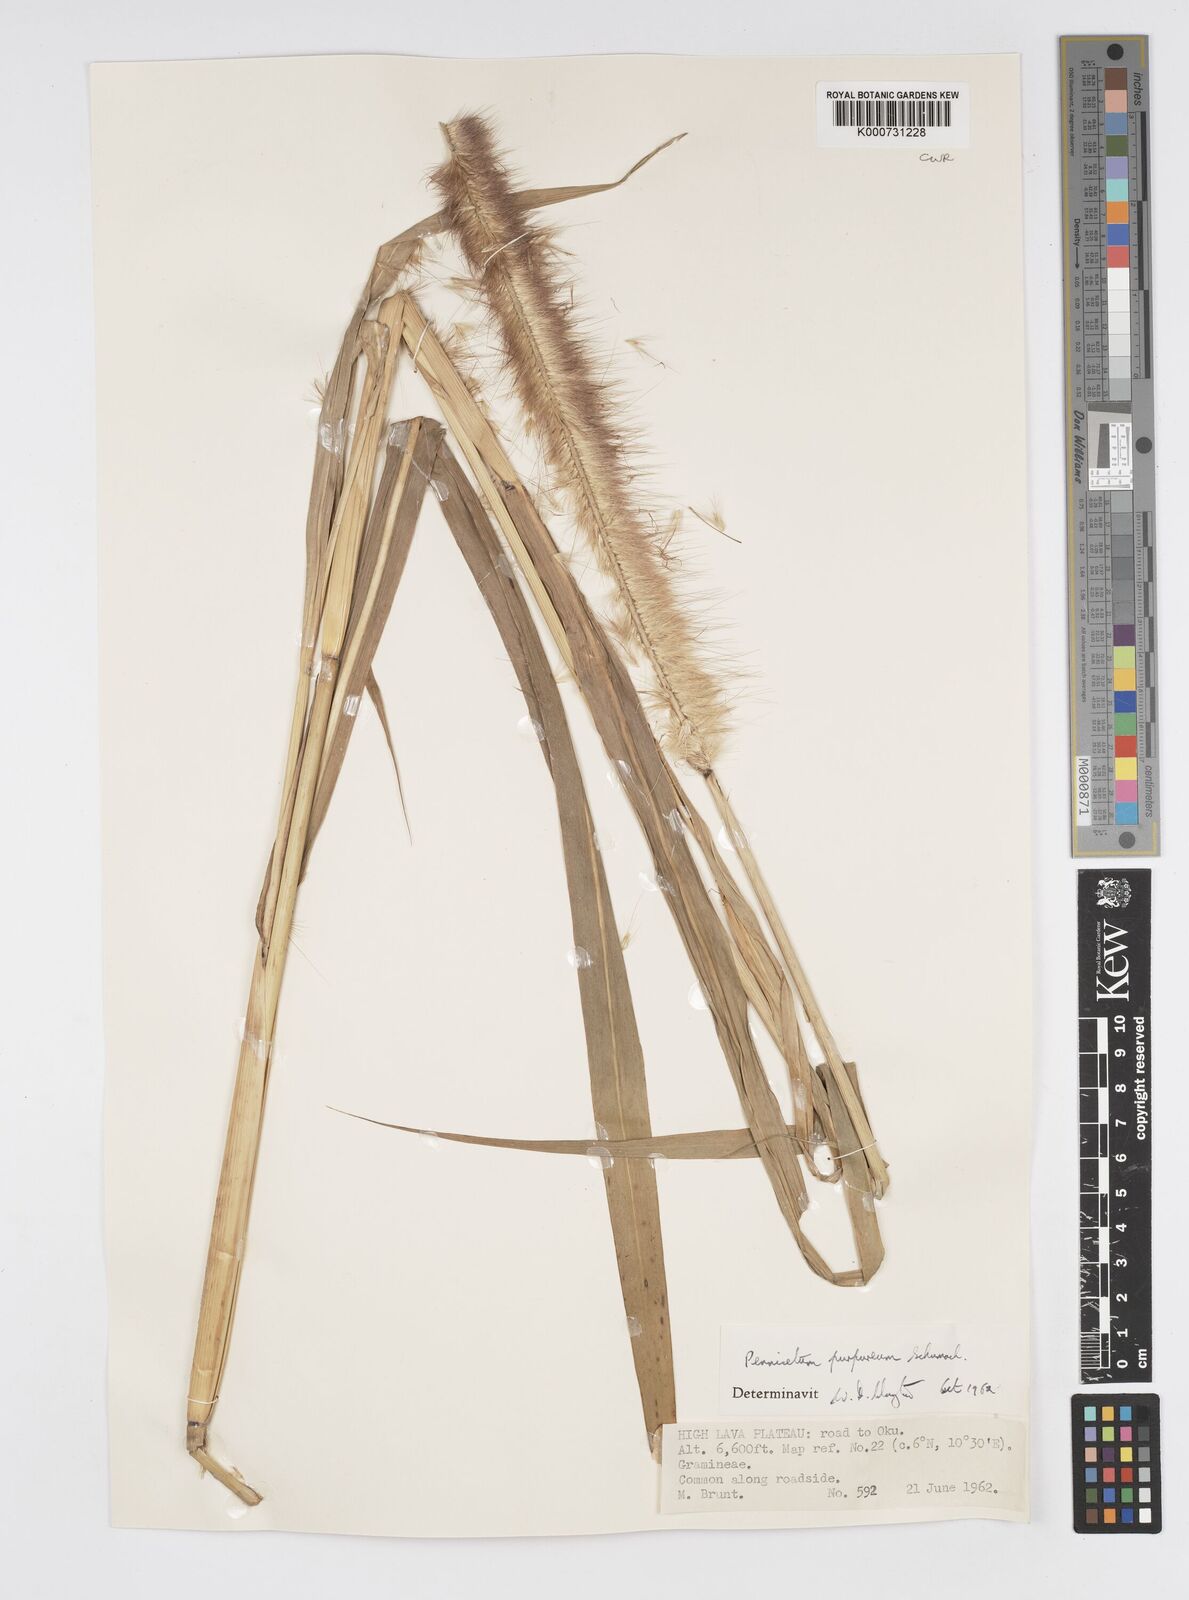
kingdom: Plantae
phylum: Tracheophyta
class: Liliopsida
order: Poales
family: Poaceae
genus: Cenchrus
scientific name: Cenchrus purpureus
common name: Elephant grass
